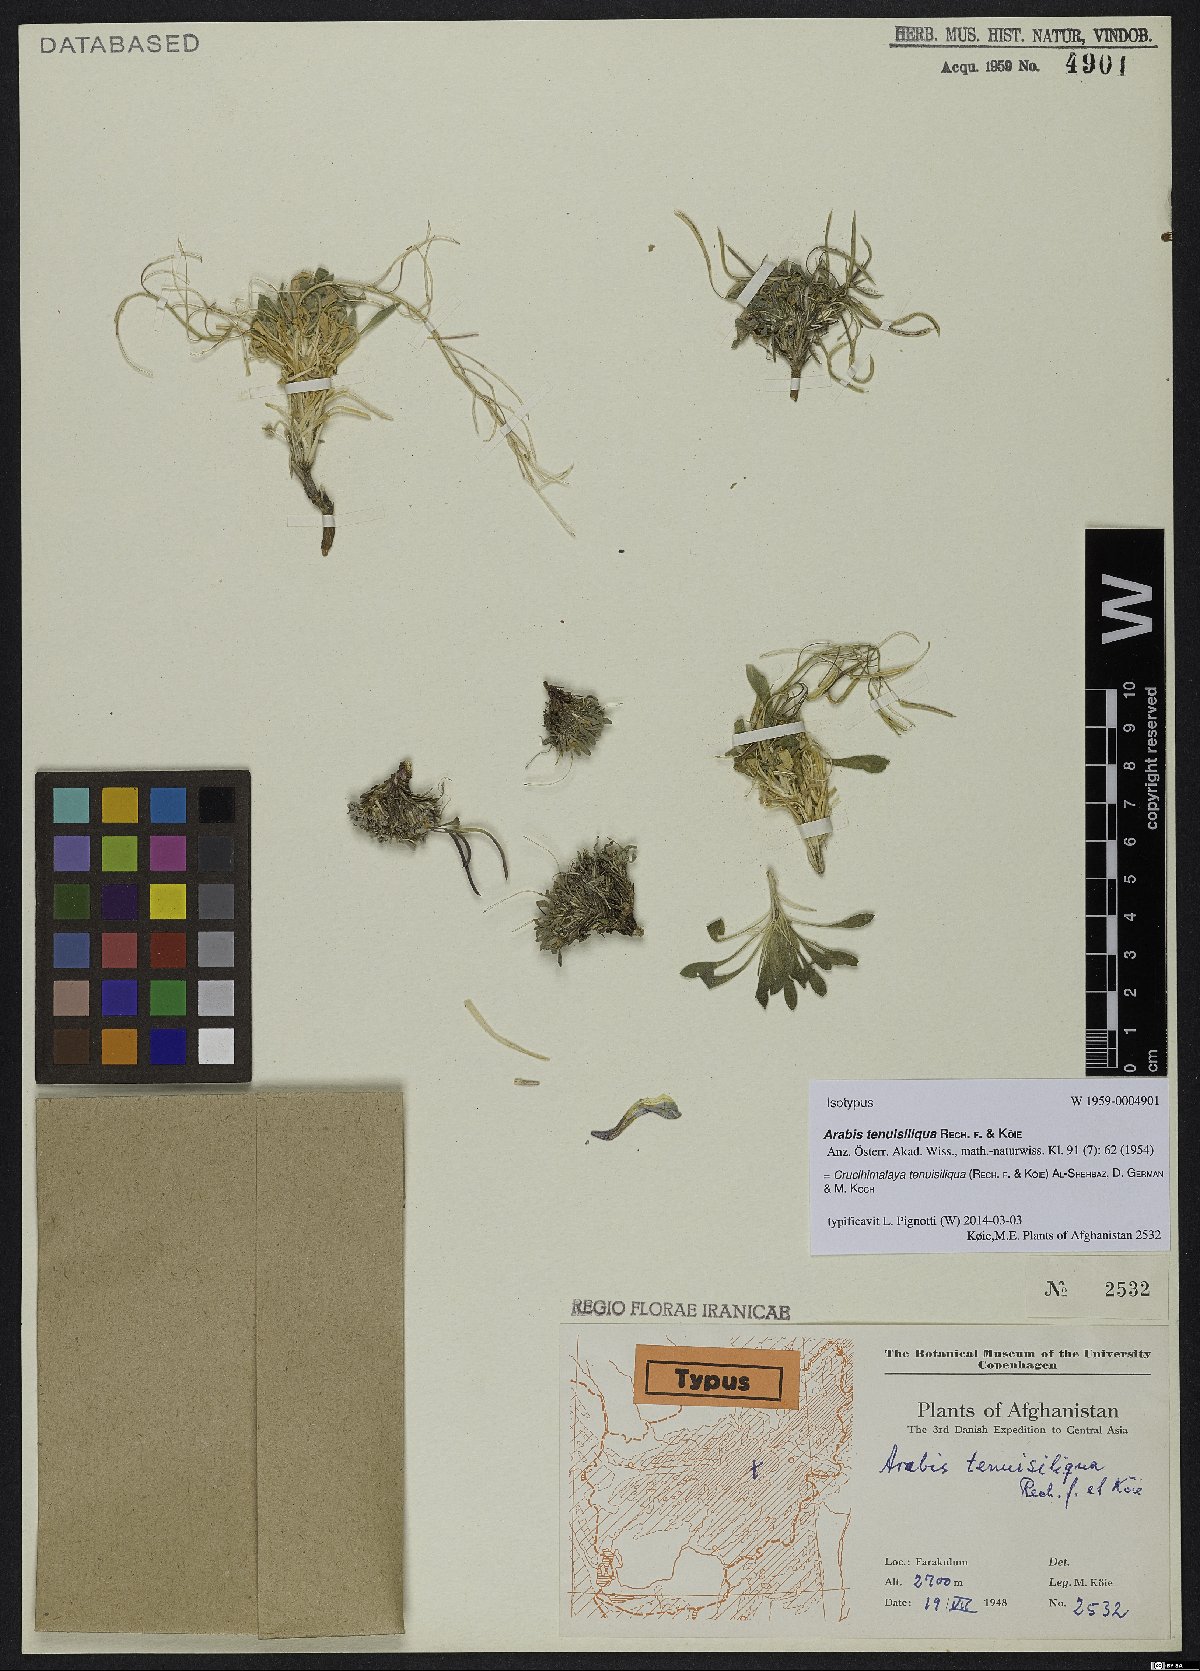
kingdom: Plantae
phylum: Tracheophyta
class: Magnoliopsida
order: Brassicales
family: Brassicaceae
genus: Crucihimalaya
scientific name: Crucihimalaya tenuisiliqua
